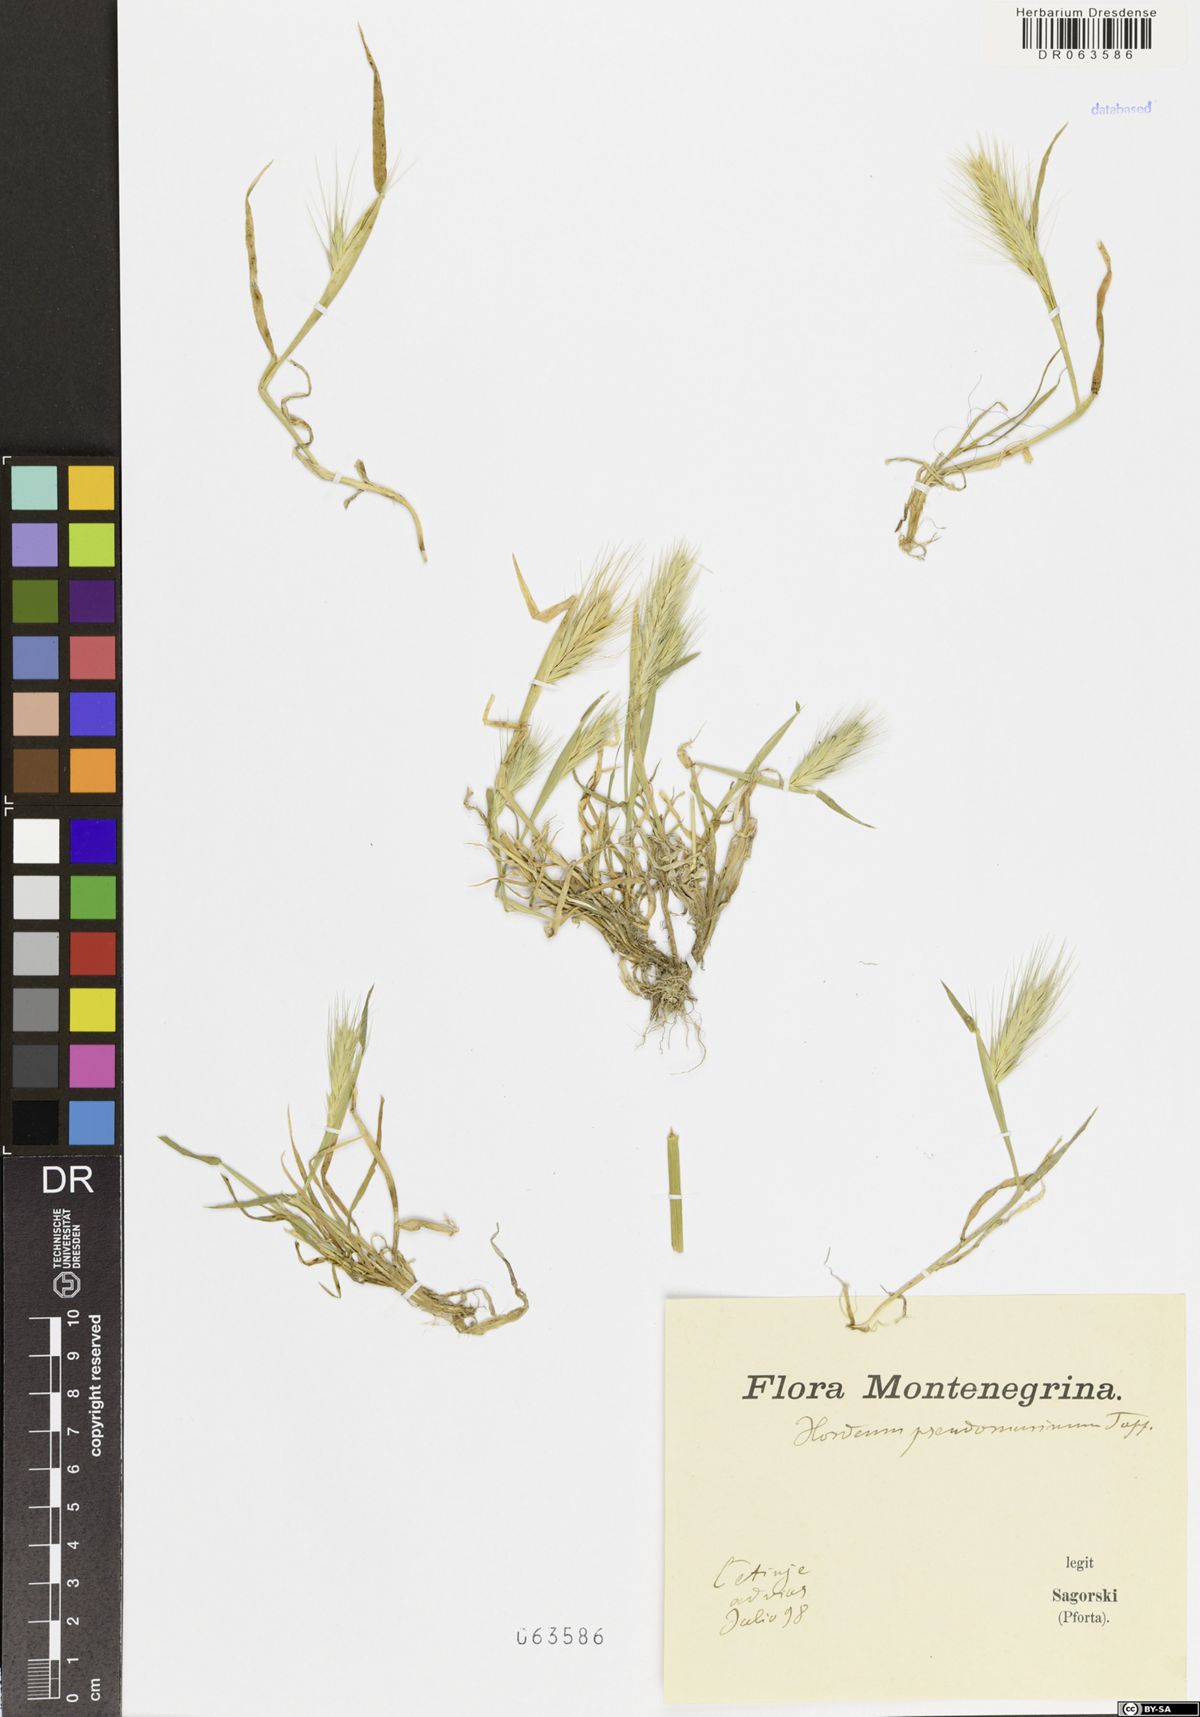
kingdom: Plantae
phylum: Tracheophyta
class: Liliopsida
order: Poales
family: Poaceae
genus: Hordeum
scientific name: Hordeum murinum
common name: Wall barley
